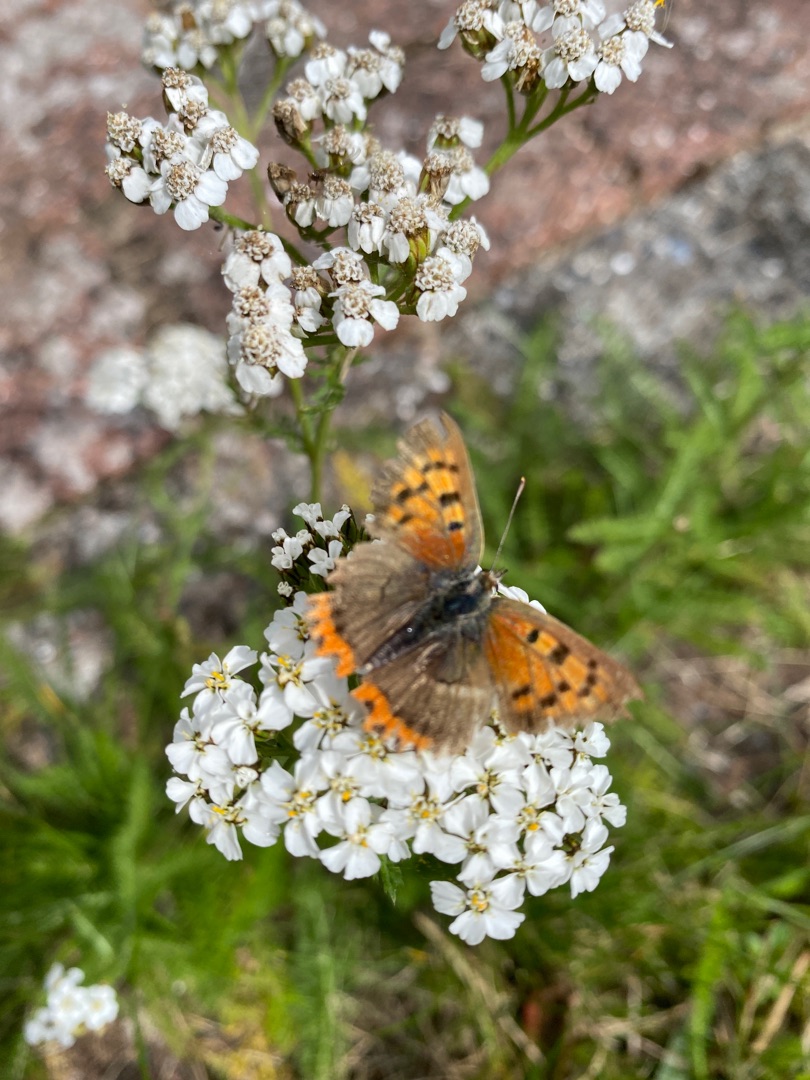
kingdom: Animalia
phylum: Arthropoda
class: Insecta
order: Lepidoptera
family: Lycaenidae
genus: Lycaena
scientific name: Lycaena phlaeas
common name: Lille ildfugl
